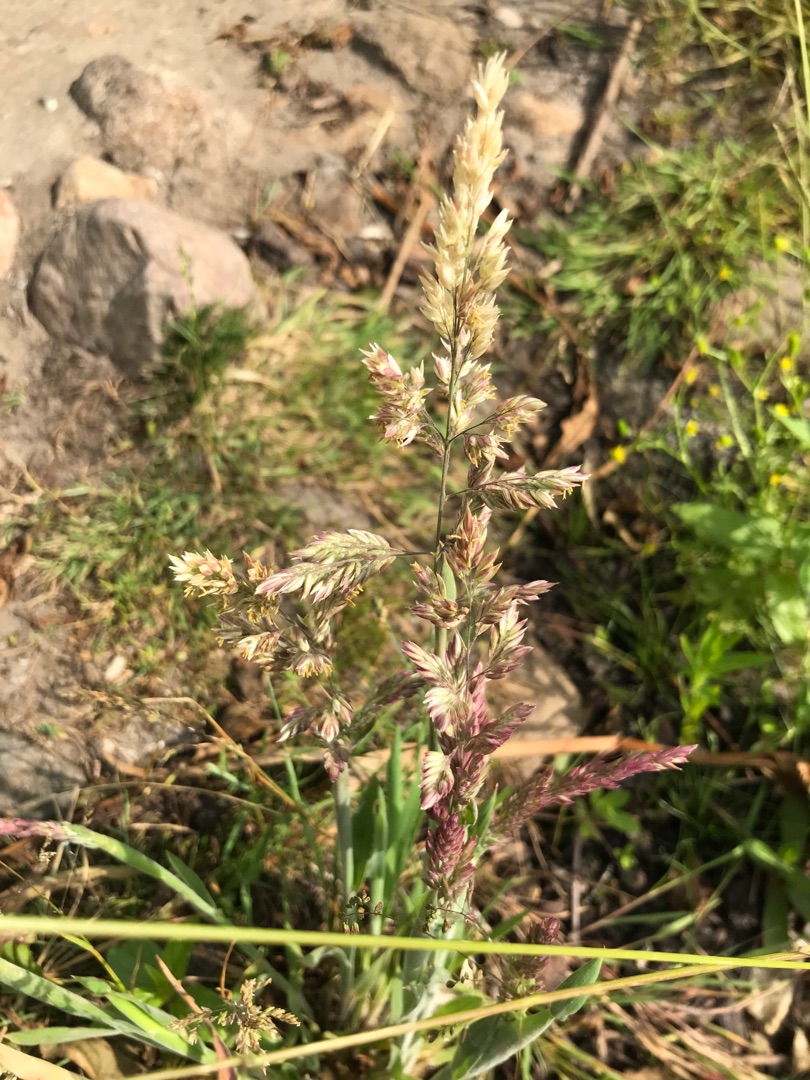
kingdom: Plantae
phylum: Tracheophyta
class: Liliopsida
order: Poales
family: Poaceae
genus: Holcus
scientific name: Holcus lanatus
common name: Fløjlsgræs
